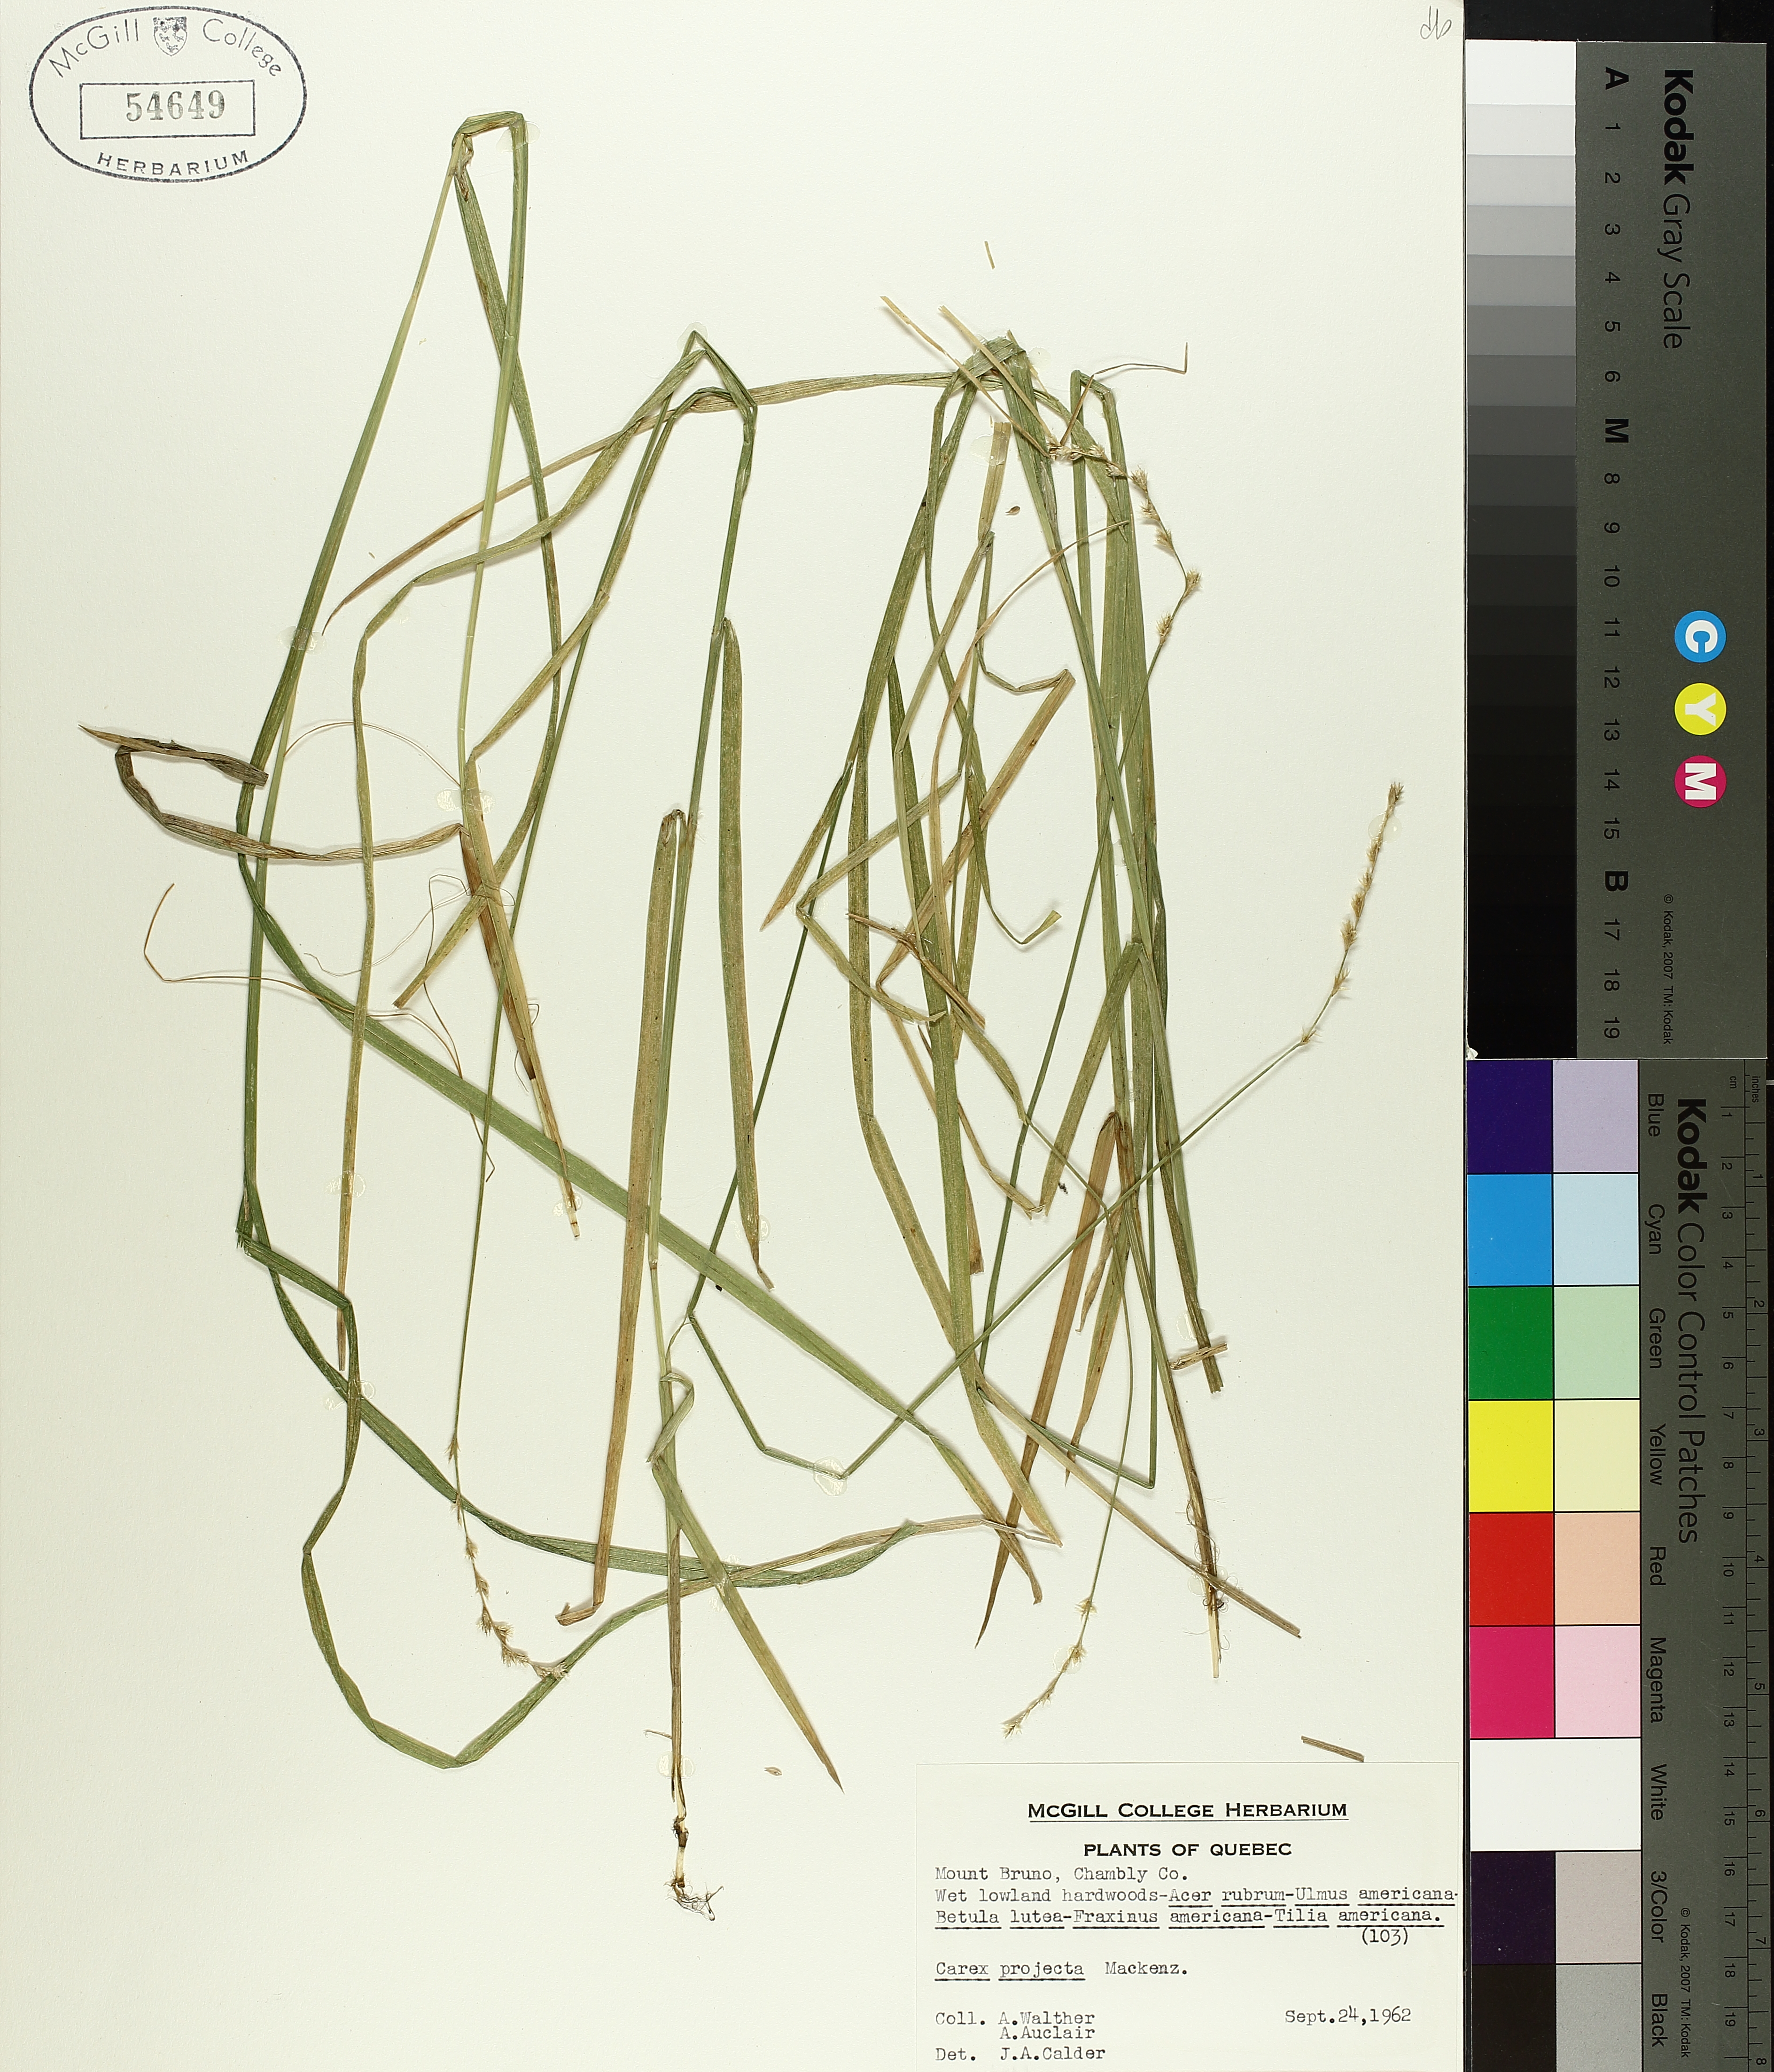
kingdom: Plantae
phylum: Tracheophyta
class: Liliopsida
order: Poales
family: Cyperaceae
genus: Carex
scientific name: Carex projecta
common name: Loose-headed oval sedge
